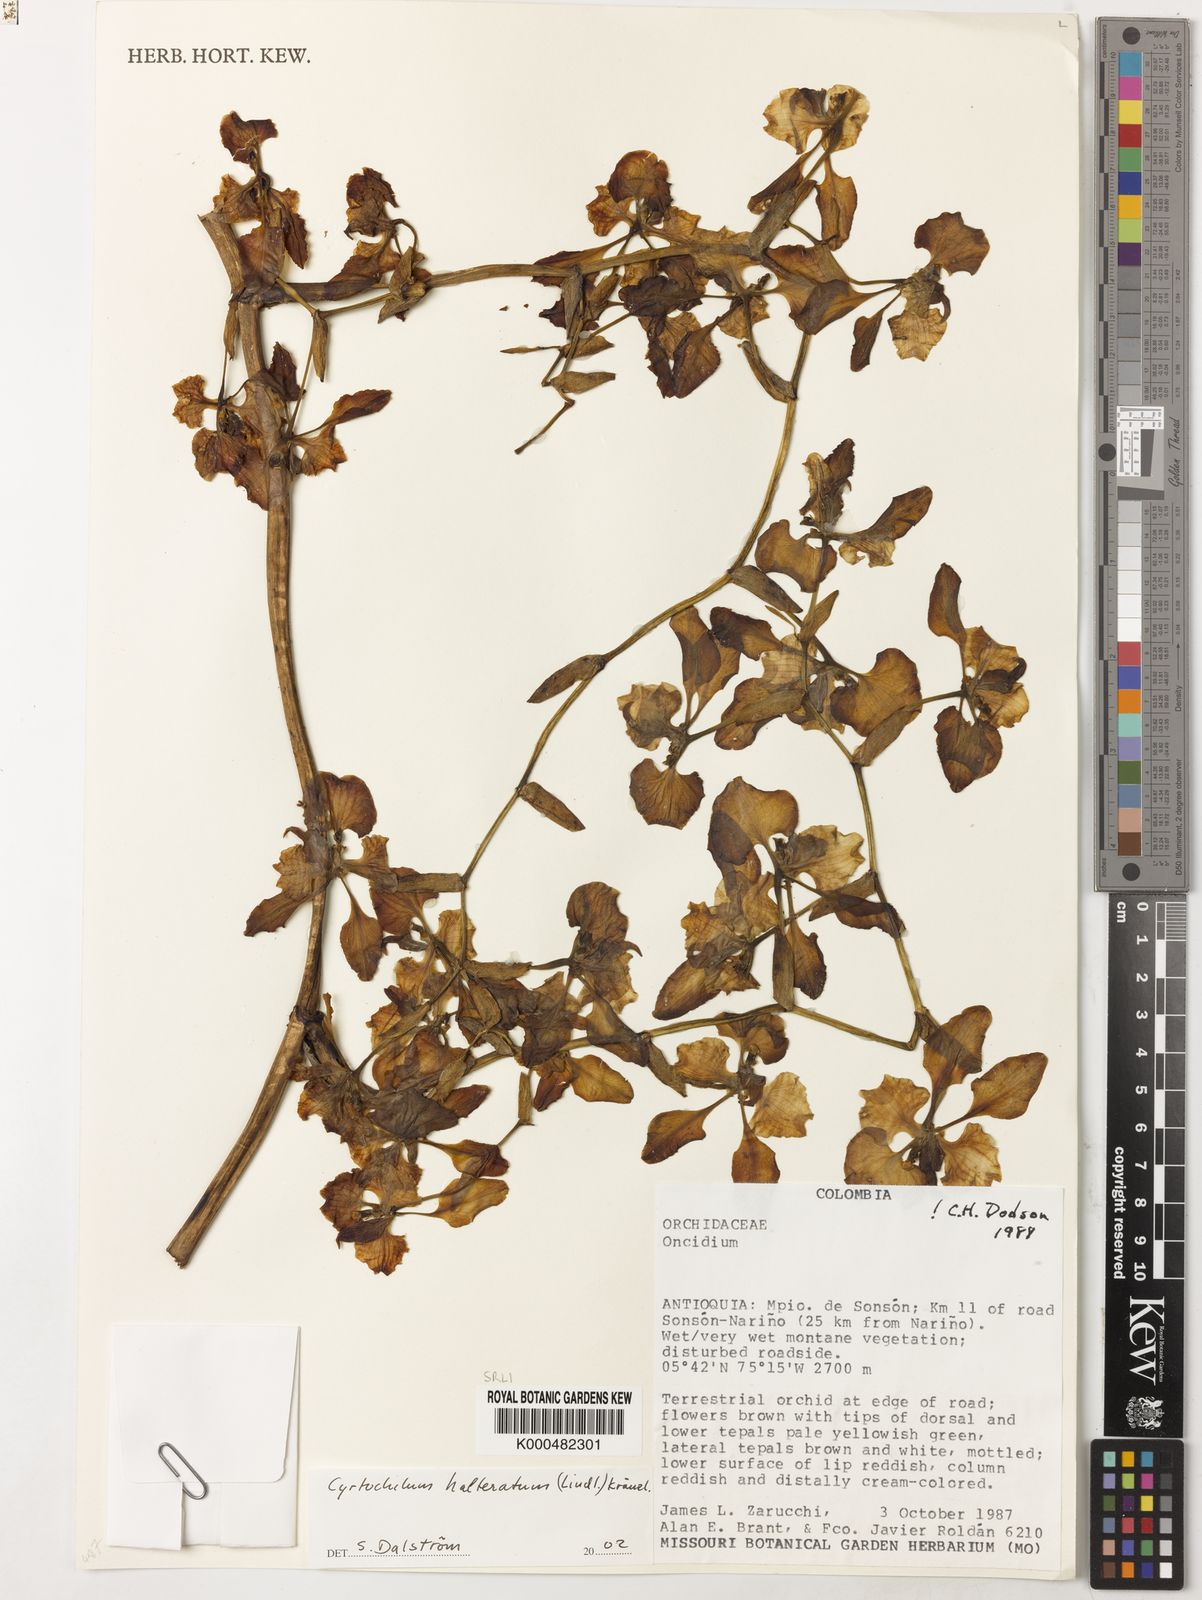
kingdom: Plantae
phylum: Tracheophyta
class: Liliopsida
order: Asparagales
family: Orchidaceae
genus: Cyrtochilum
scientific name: Cyrtochilum halteratum
